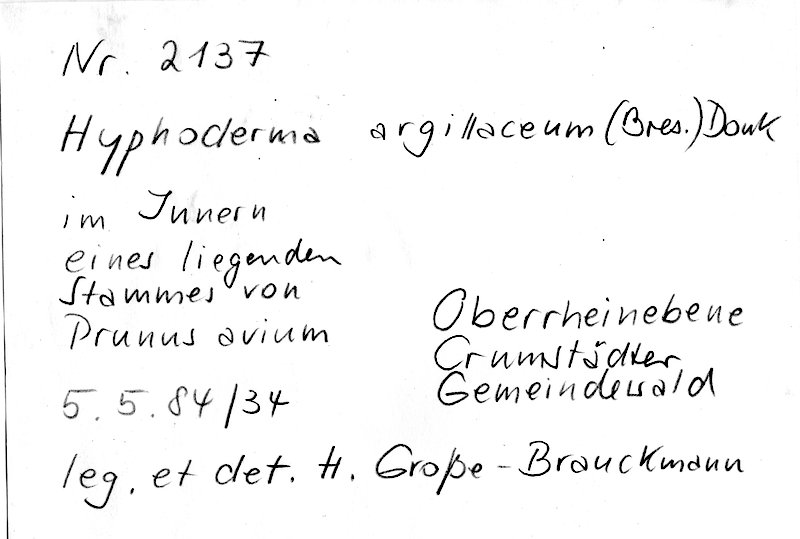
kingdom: Fungi
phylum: Basidiomycota
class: Agaricomycetes
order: Hymenochaetales
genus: Kurtia
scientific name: Kurtia argillacea
